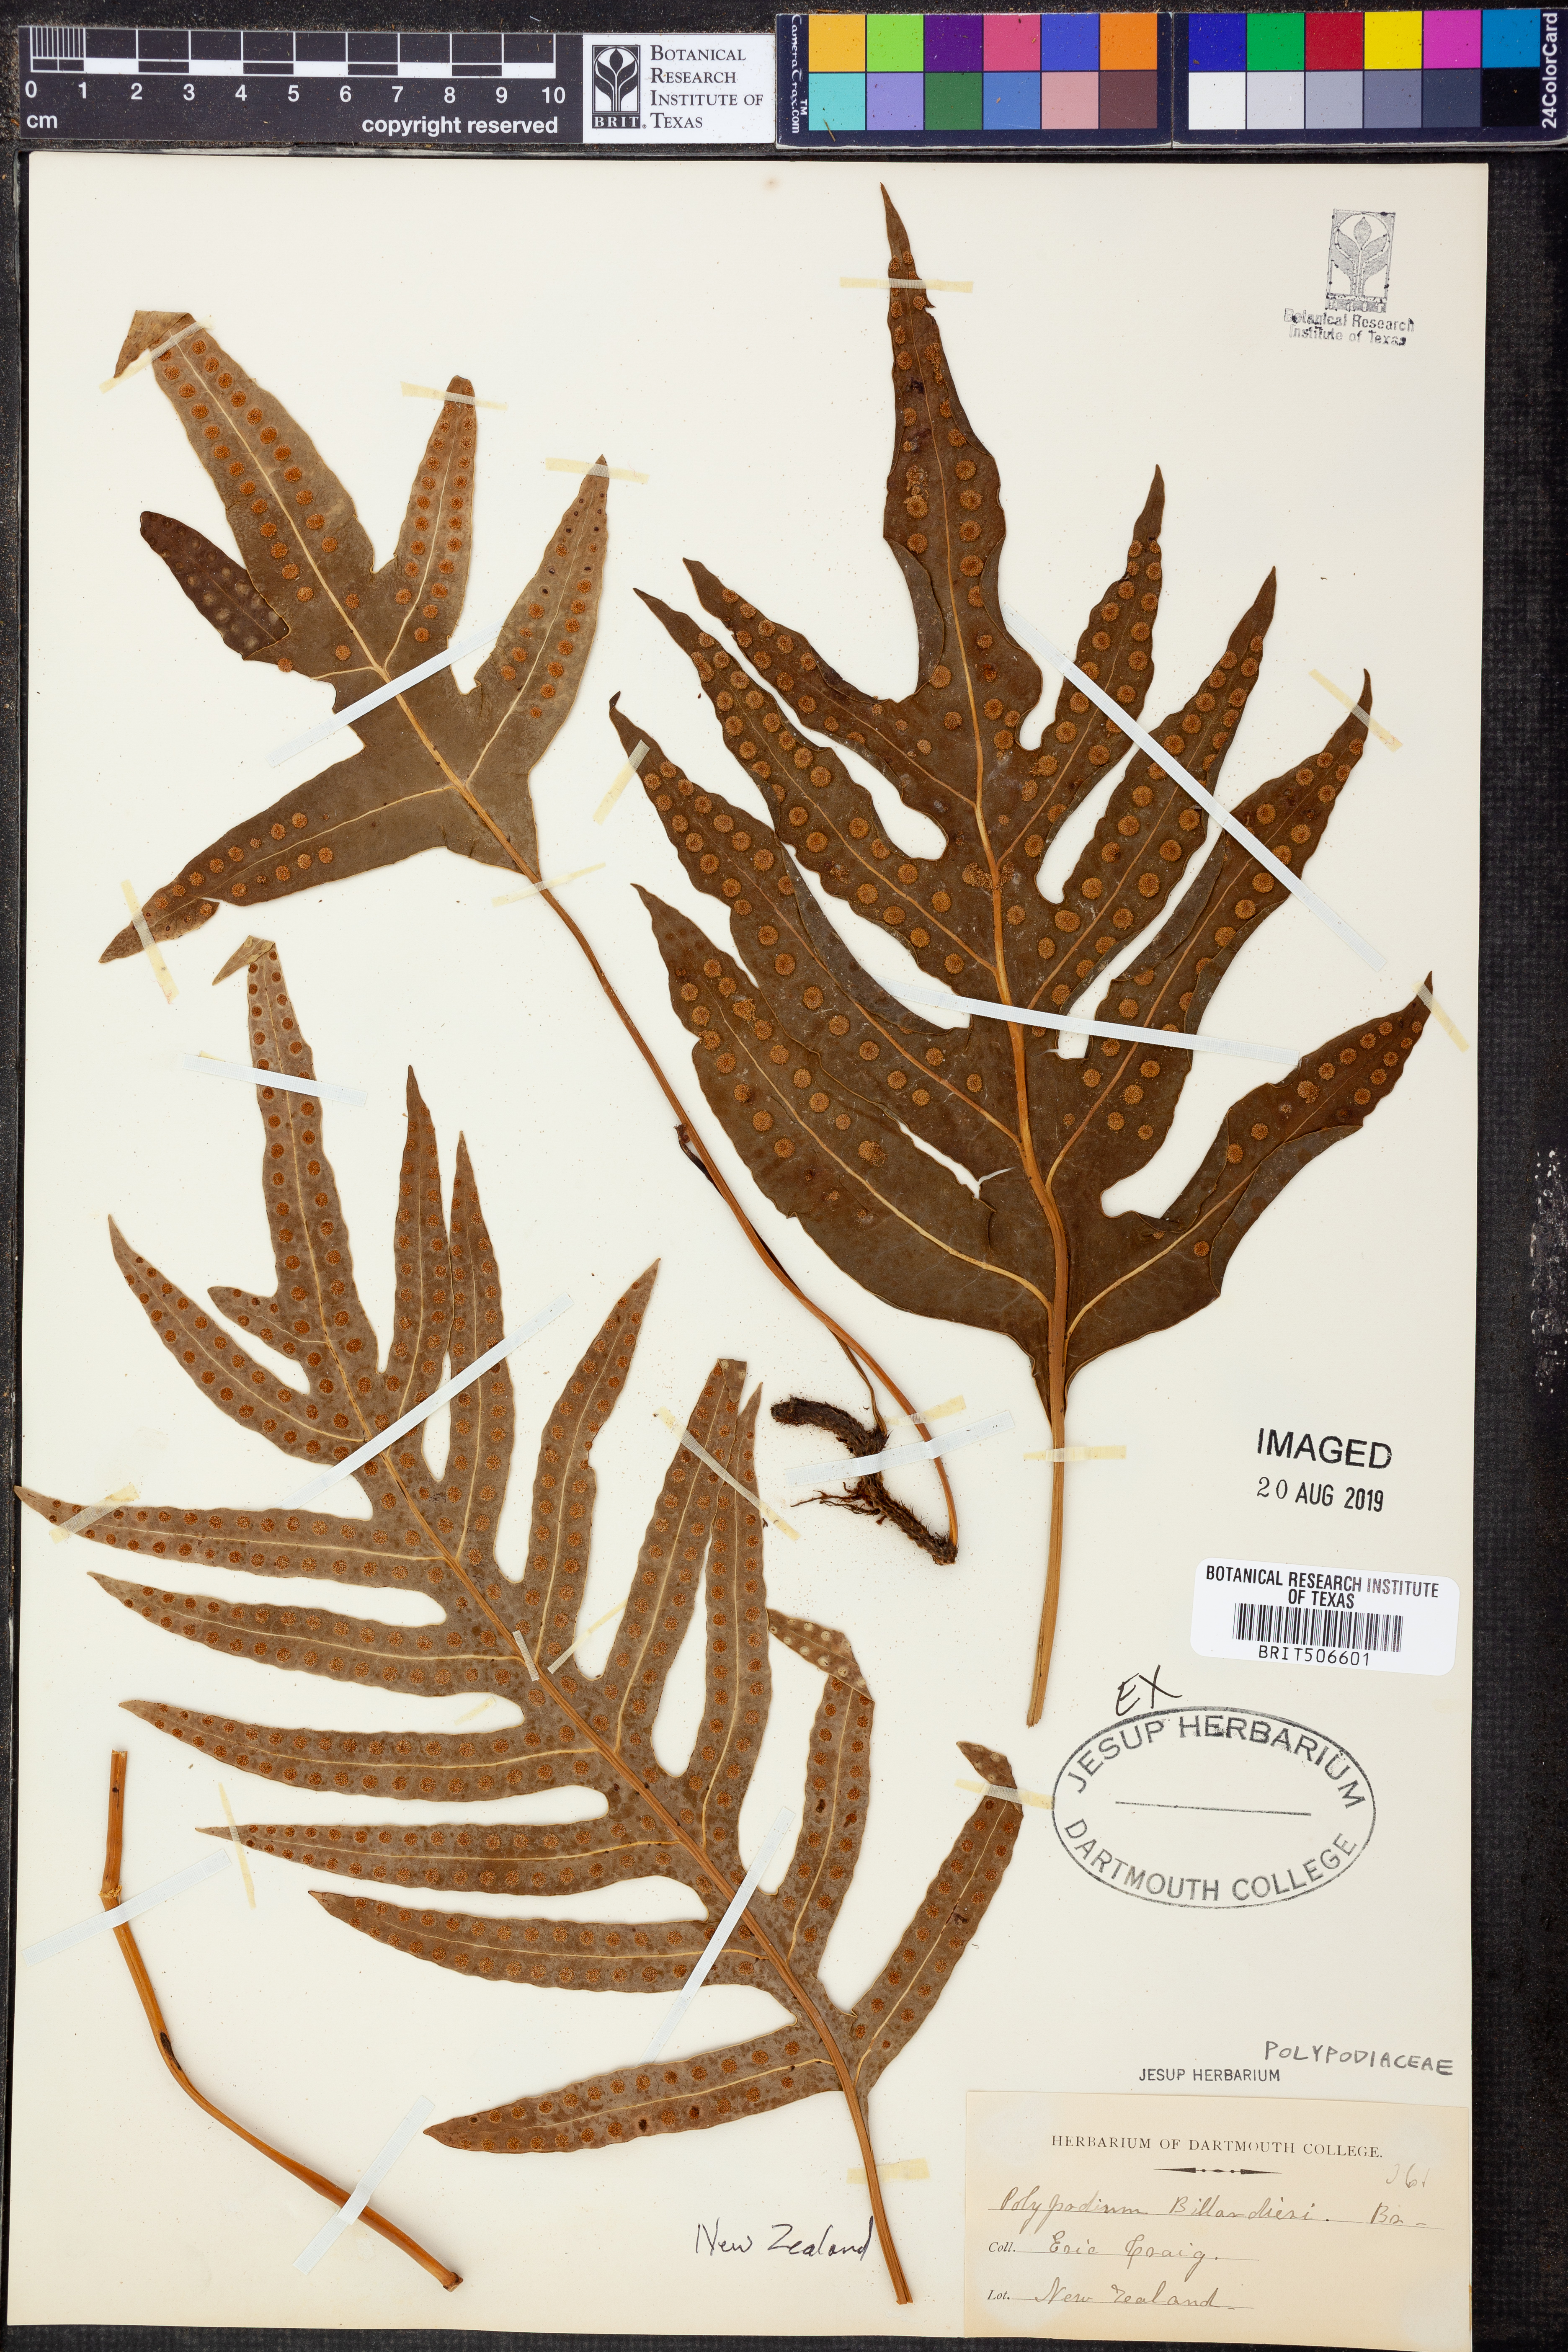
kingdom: Plantae
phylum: Tracheophyta
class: Polypodiopsida
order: Polypodiales
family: Polypodiaceae
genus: Lecanopteris
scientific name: Lecanopteris pustulata
